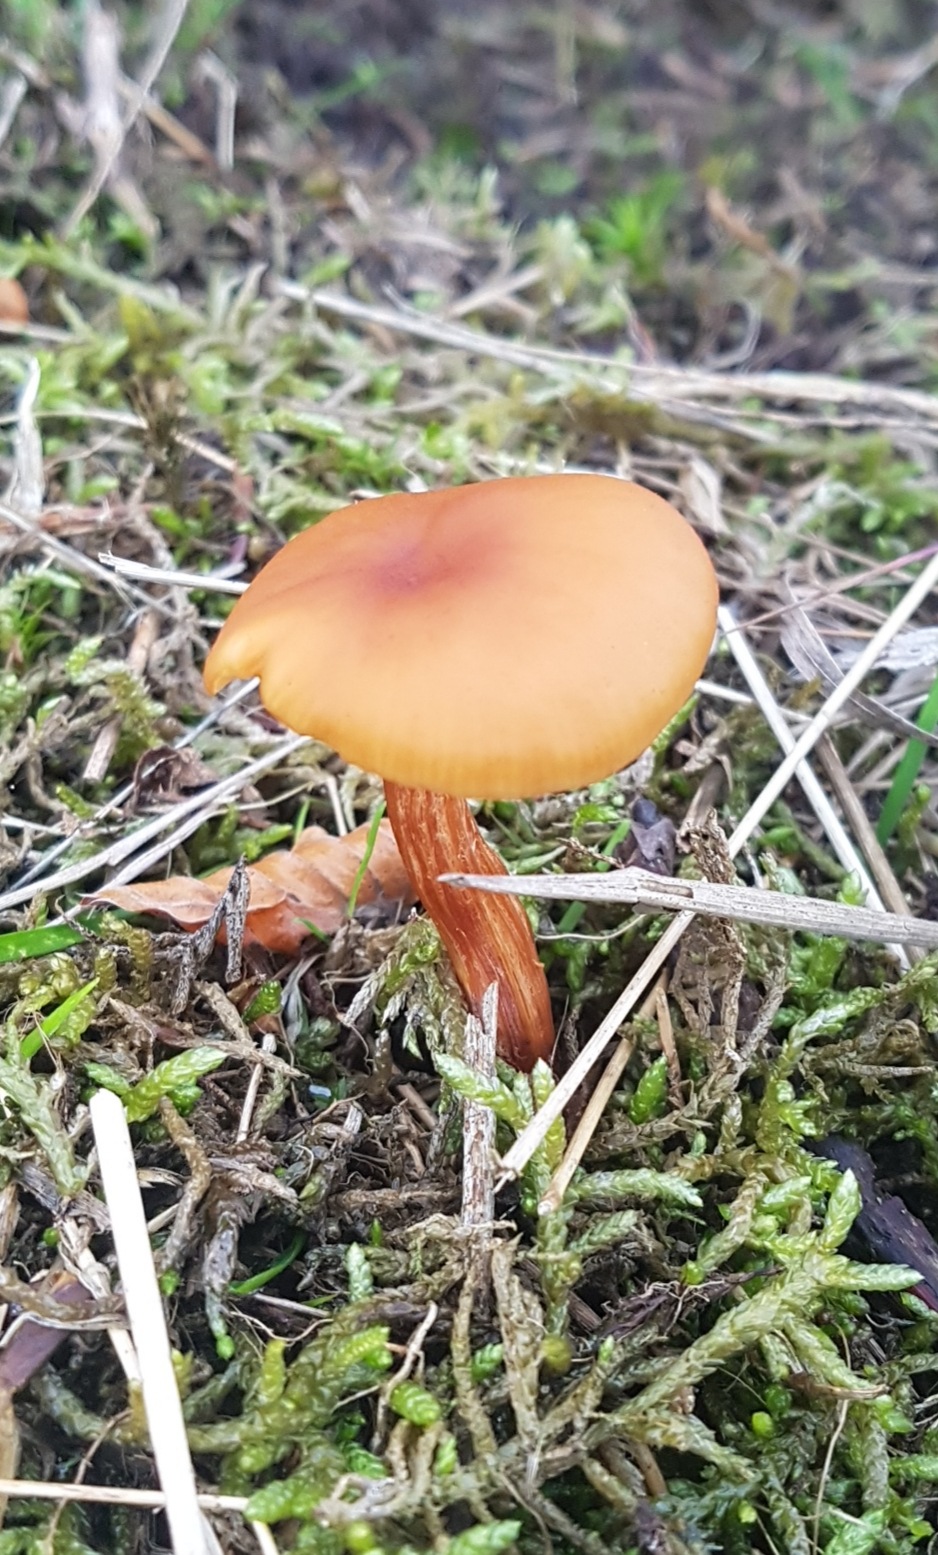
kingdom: Fungi
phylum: Basidiomycota
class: Agaricomycetes
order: Agaricales
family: Hydnangiaceae
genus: Laccaria
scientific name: Laccaria laccata
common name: rød ametysthat
